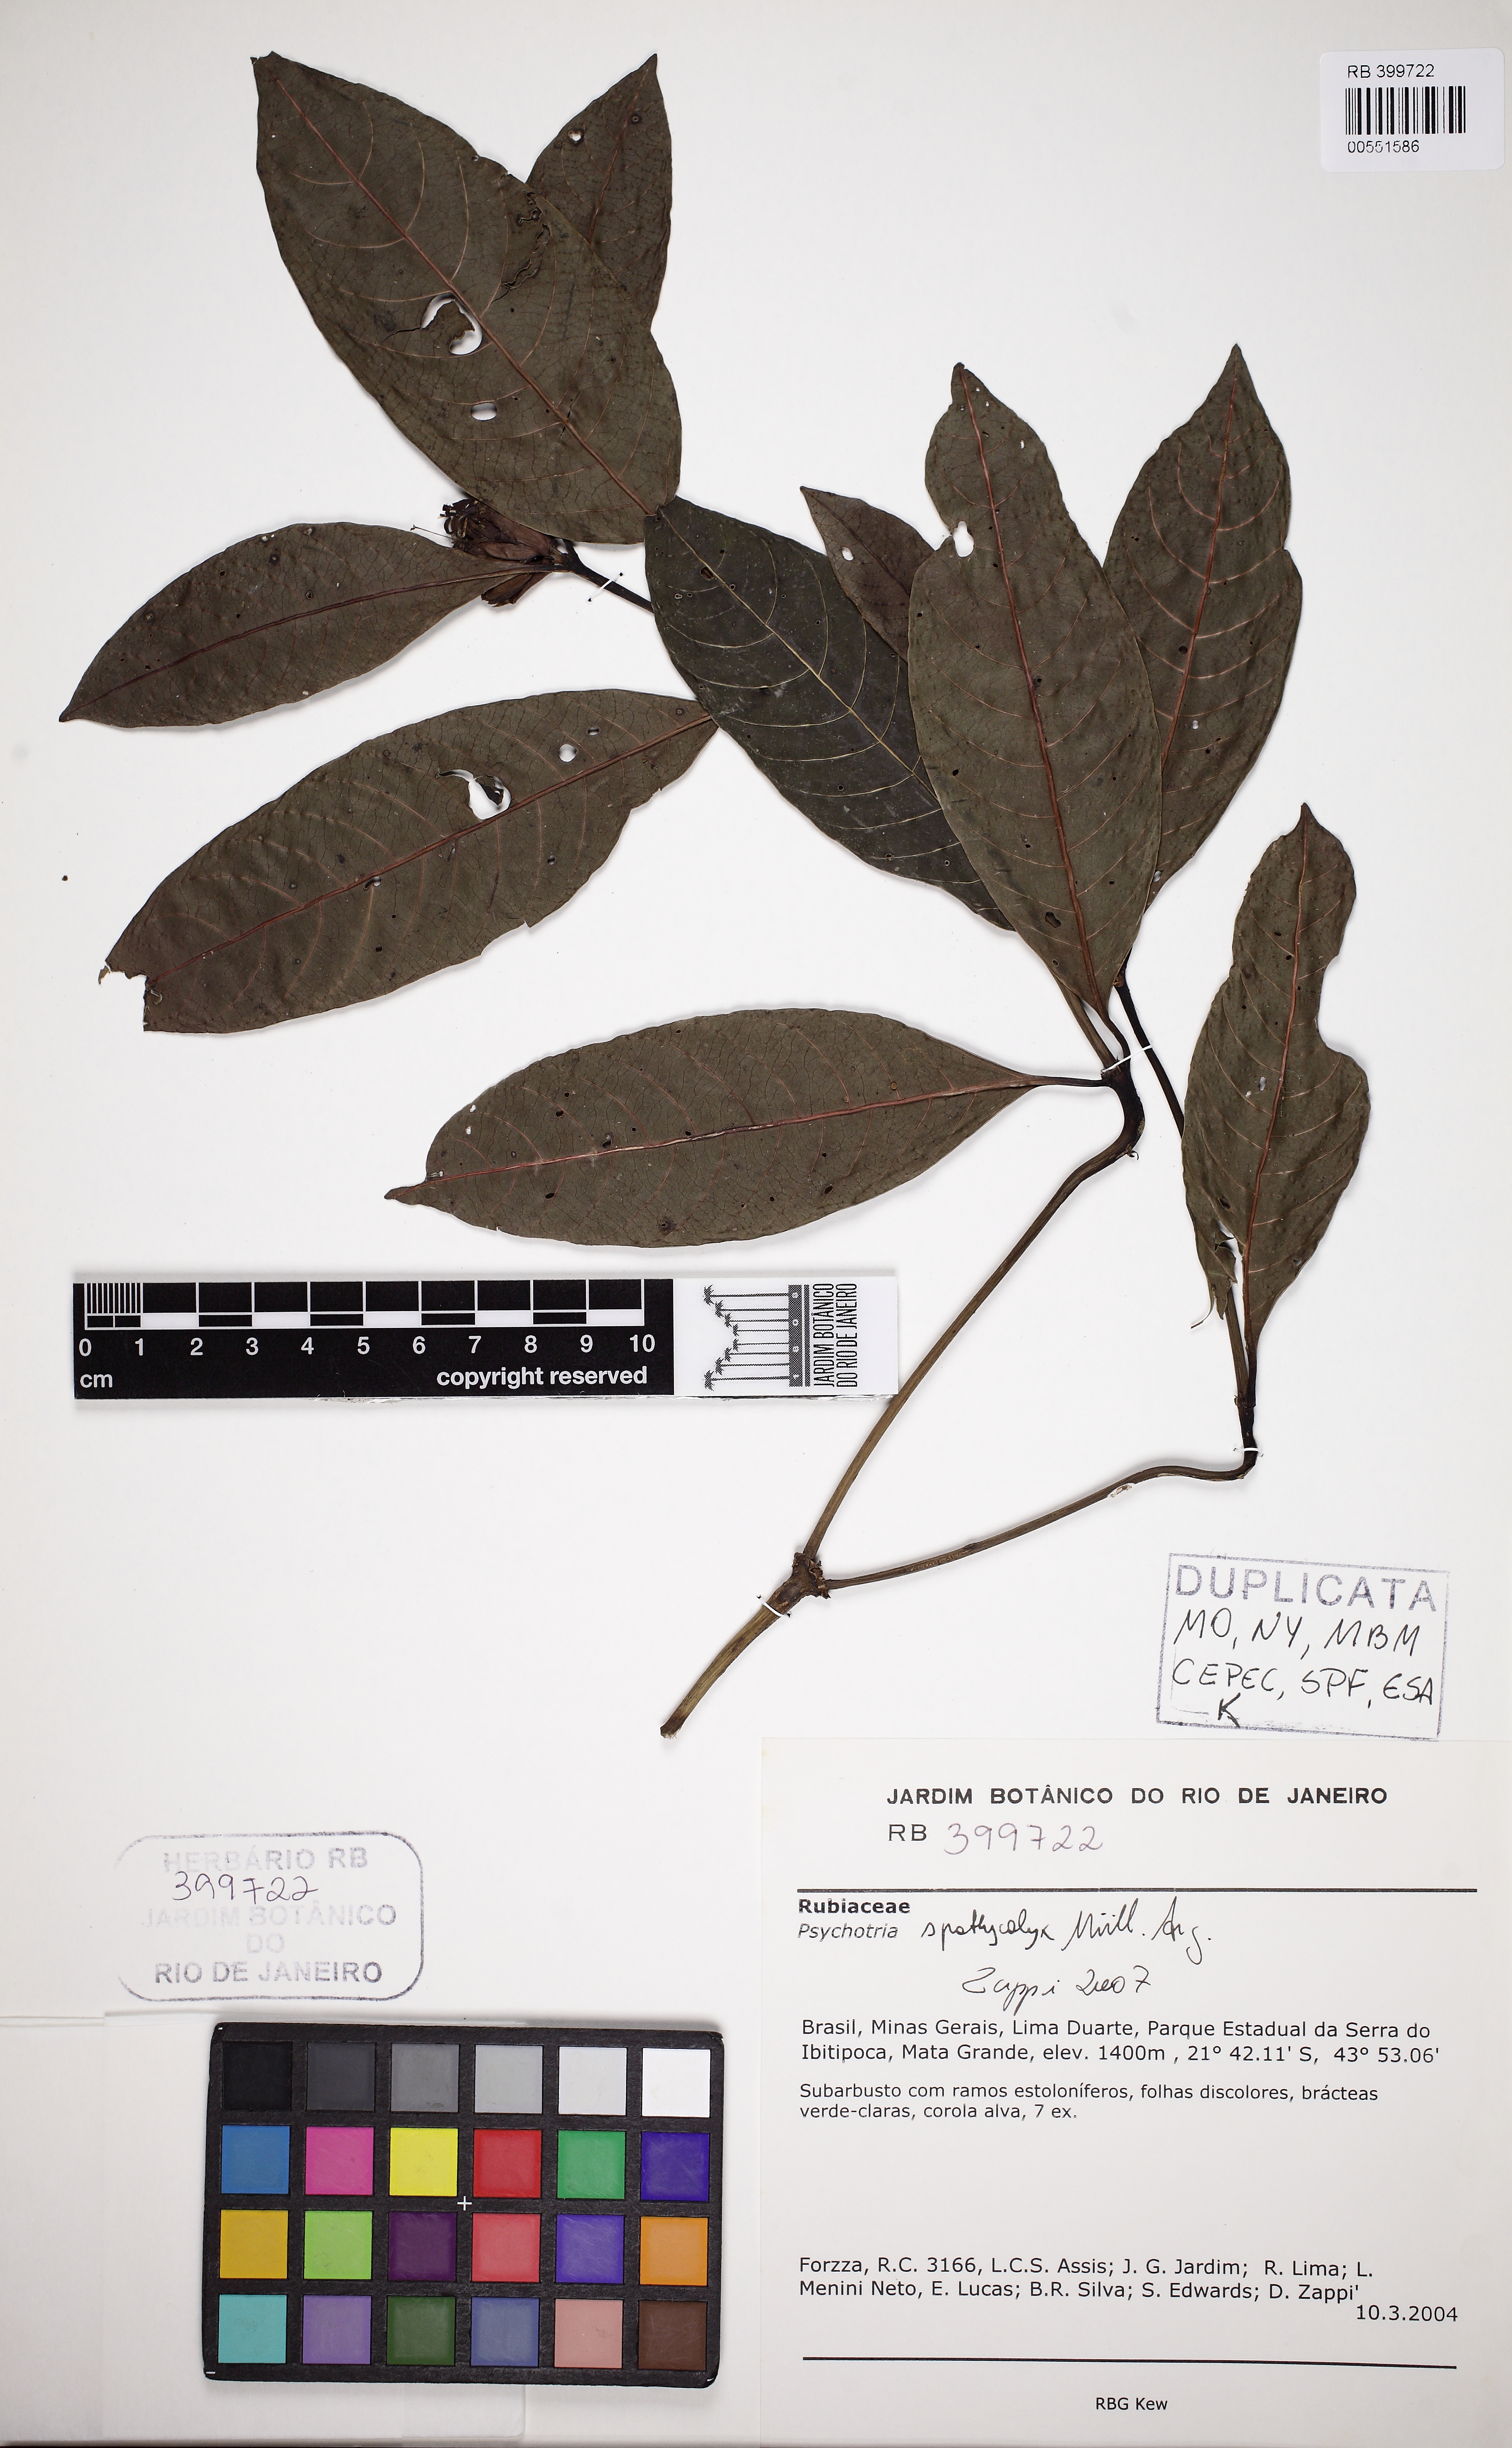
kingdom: Plantae
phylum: Tracheophyta
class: Magnoliopsida
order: Gentianales
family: Rubiaceae
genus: Psychotria
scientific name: Psychotria spathicalyx
